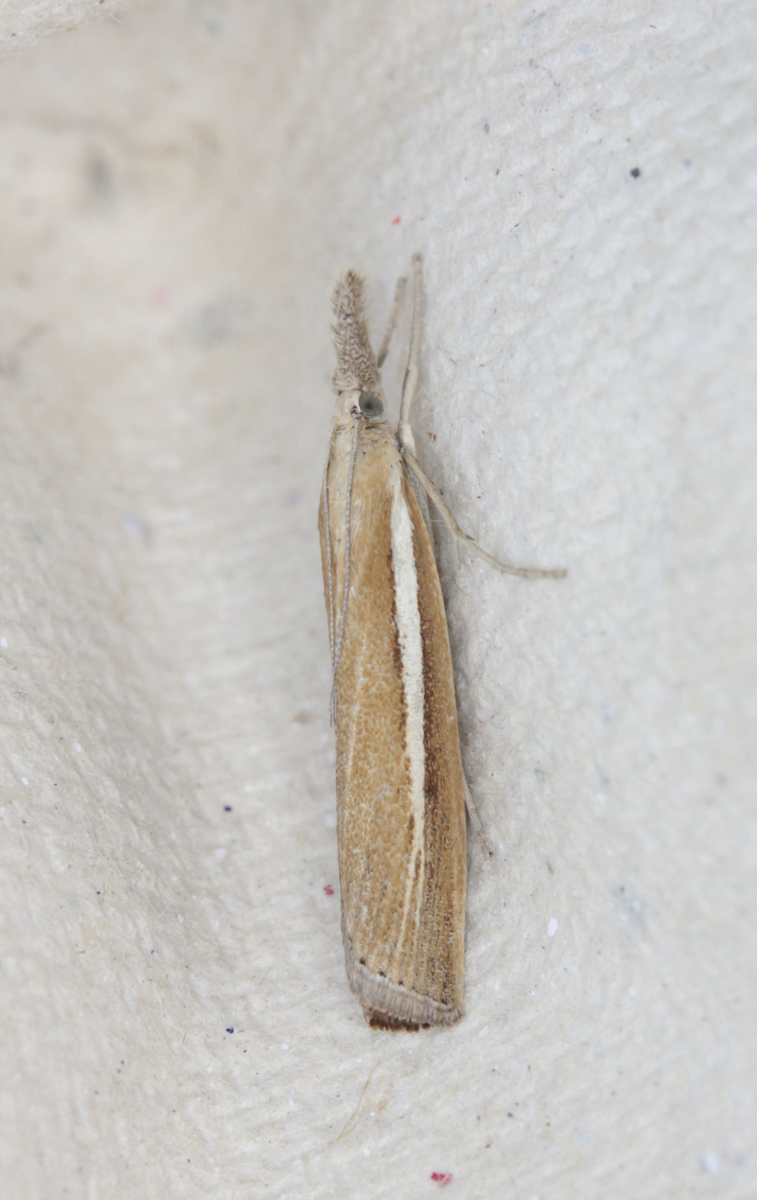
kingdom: Animalia
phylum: Arthropoda
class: Insecta
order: Lepidoptera
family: Crambidae
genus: Agriphila
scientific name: Agriphila tristellus
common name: Common grass-veneer
